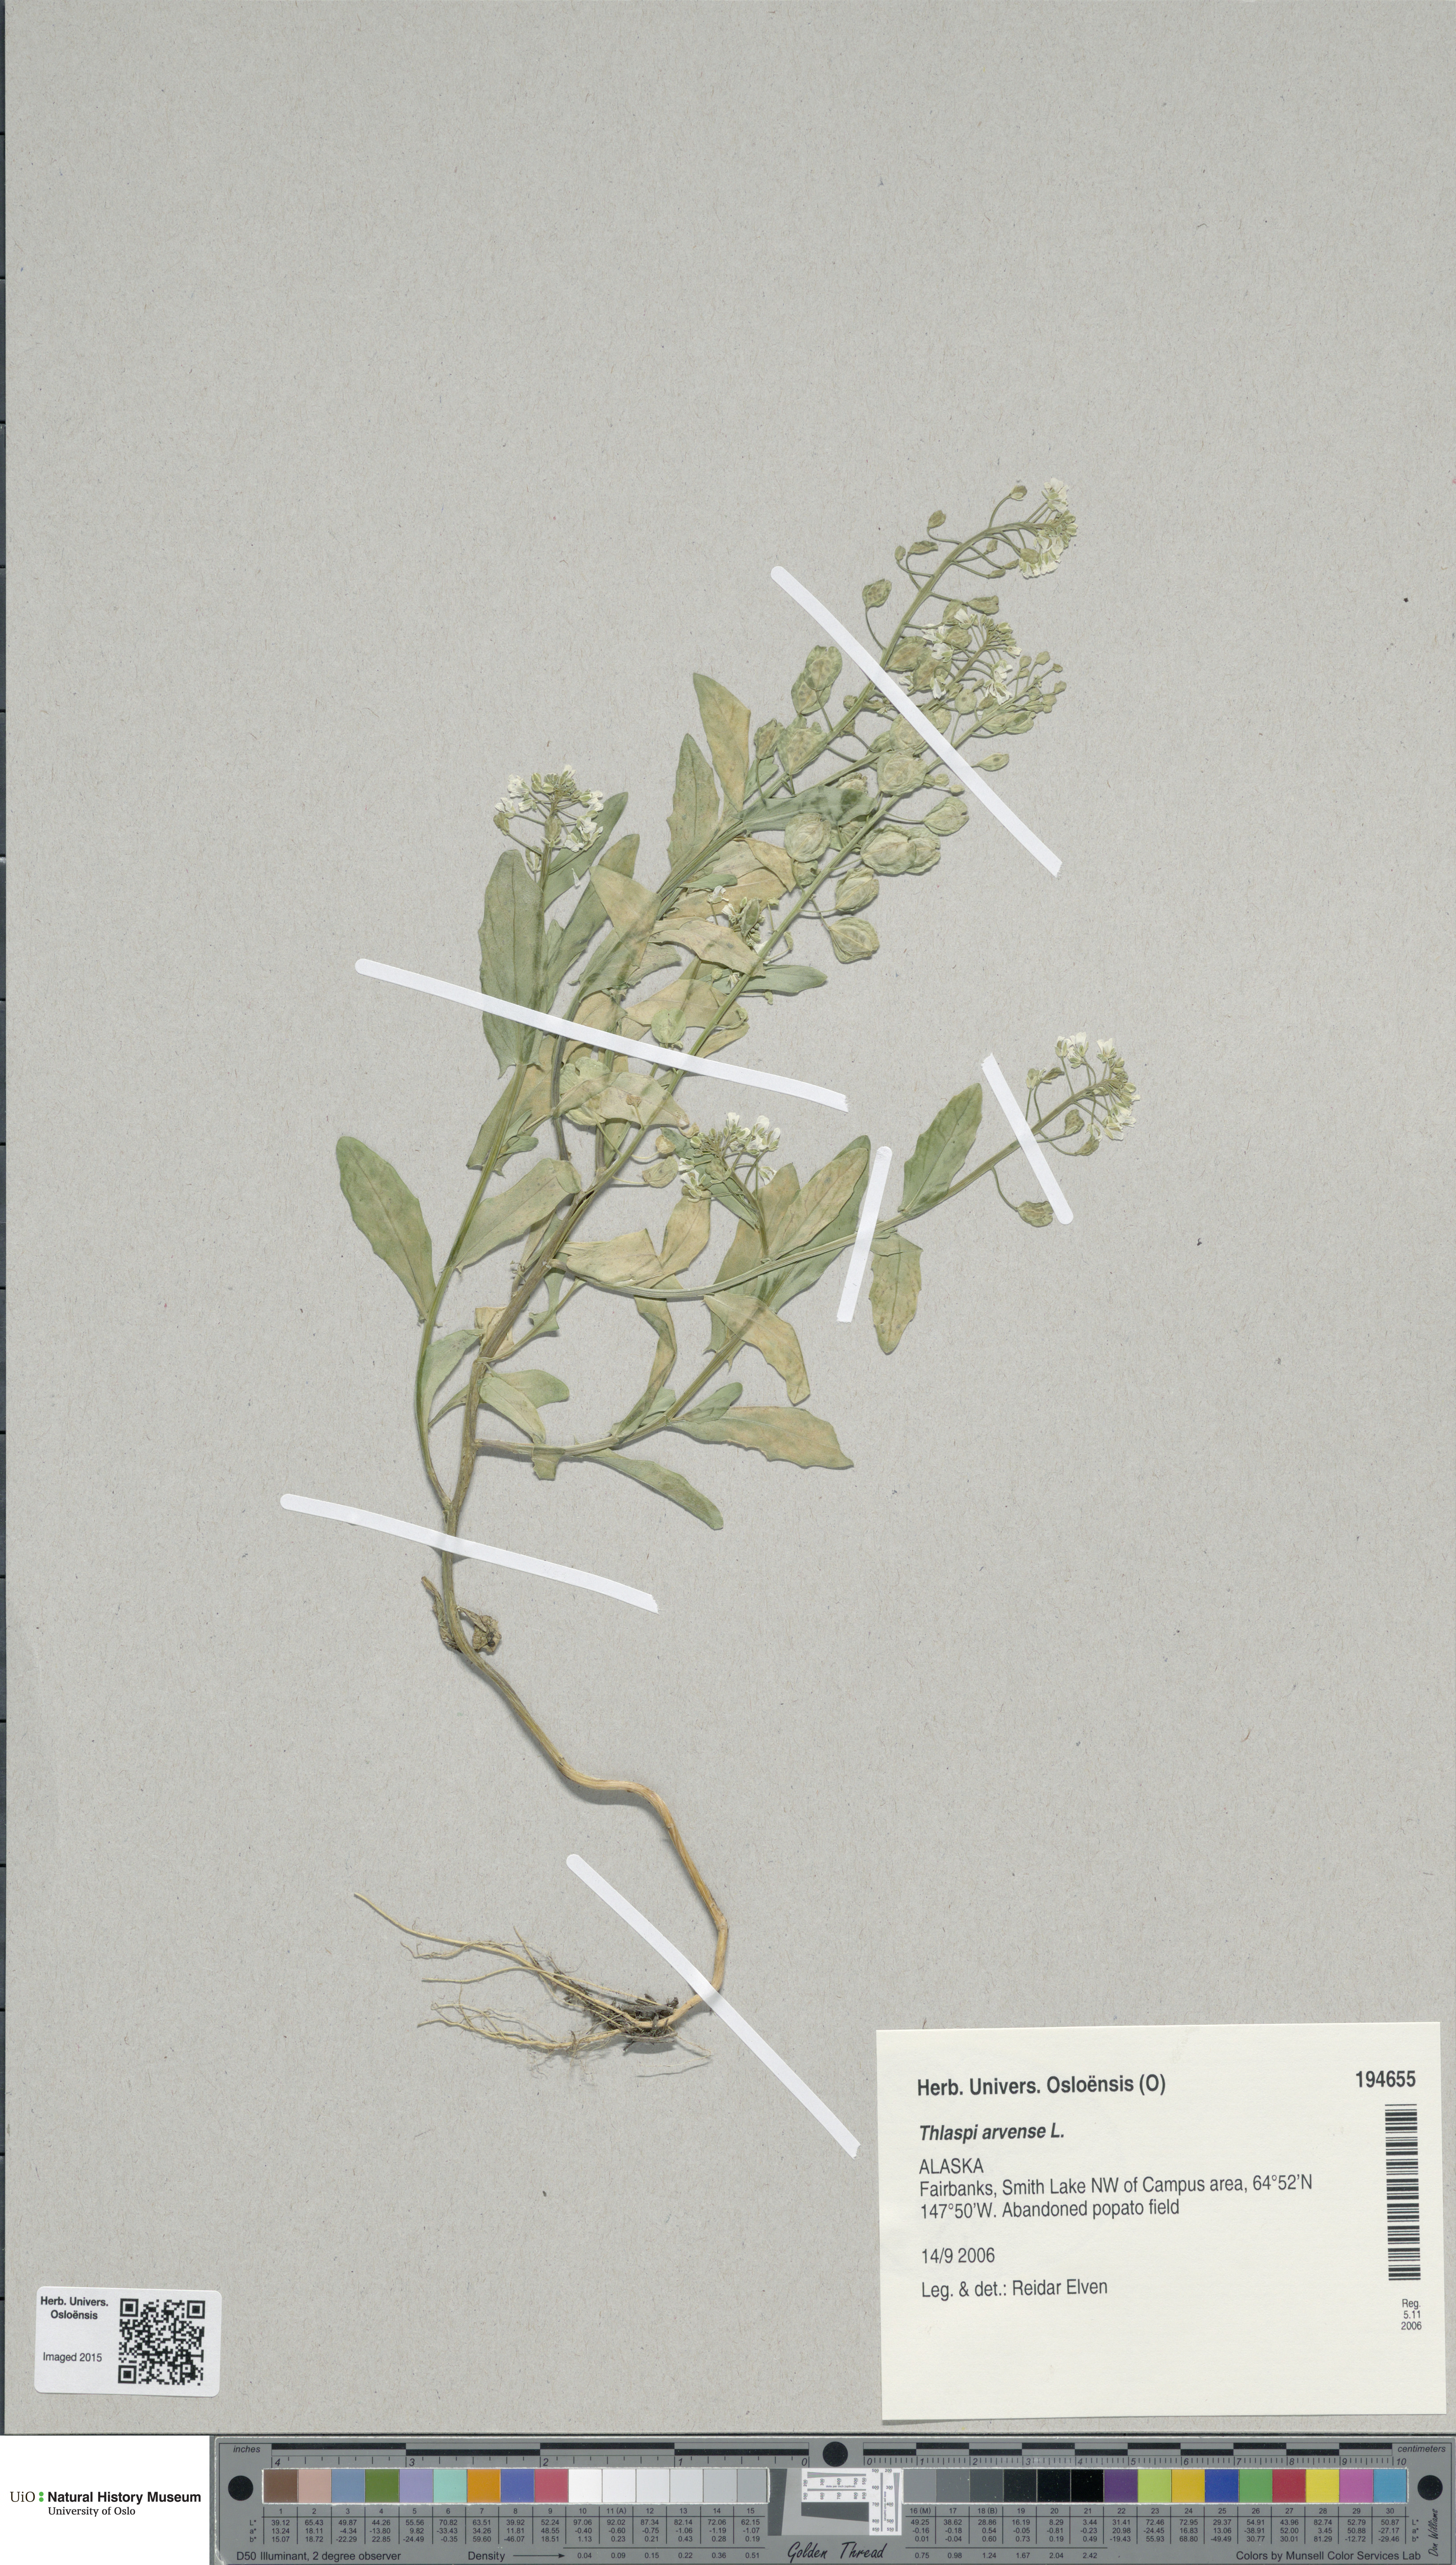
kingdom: Plantae
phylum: Tracheophyta
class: Magnoliopsida
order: Brassicales
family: Brassicaceae
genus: Thlaspi
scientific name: Thlaspi arvense
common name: Field pennycress
